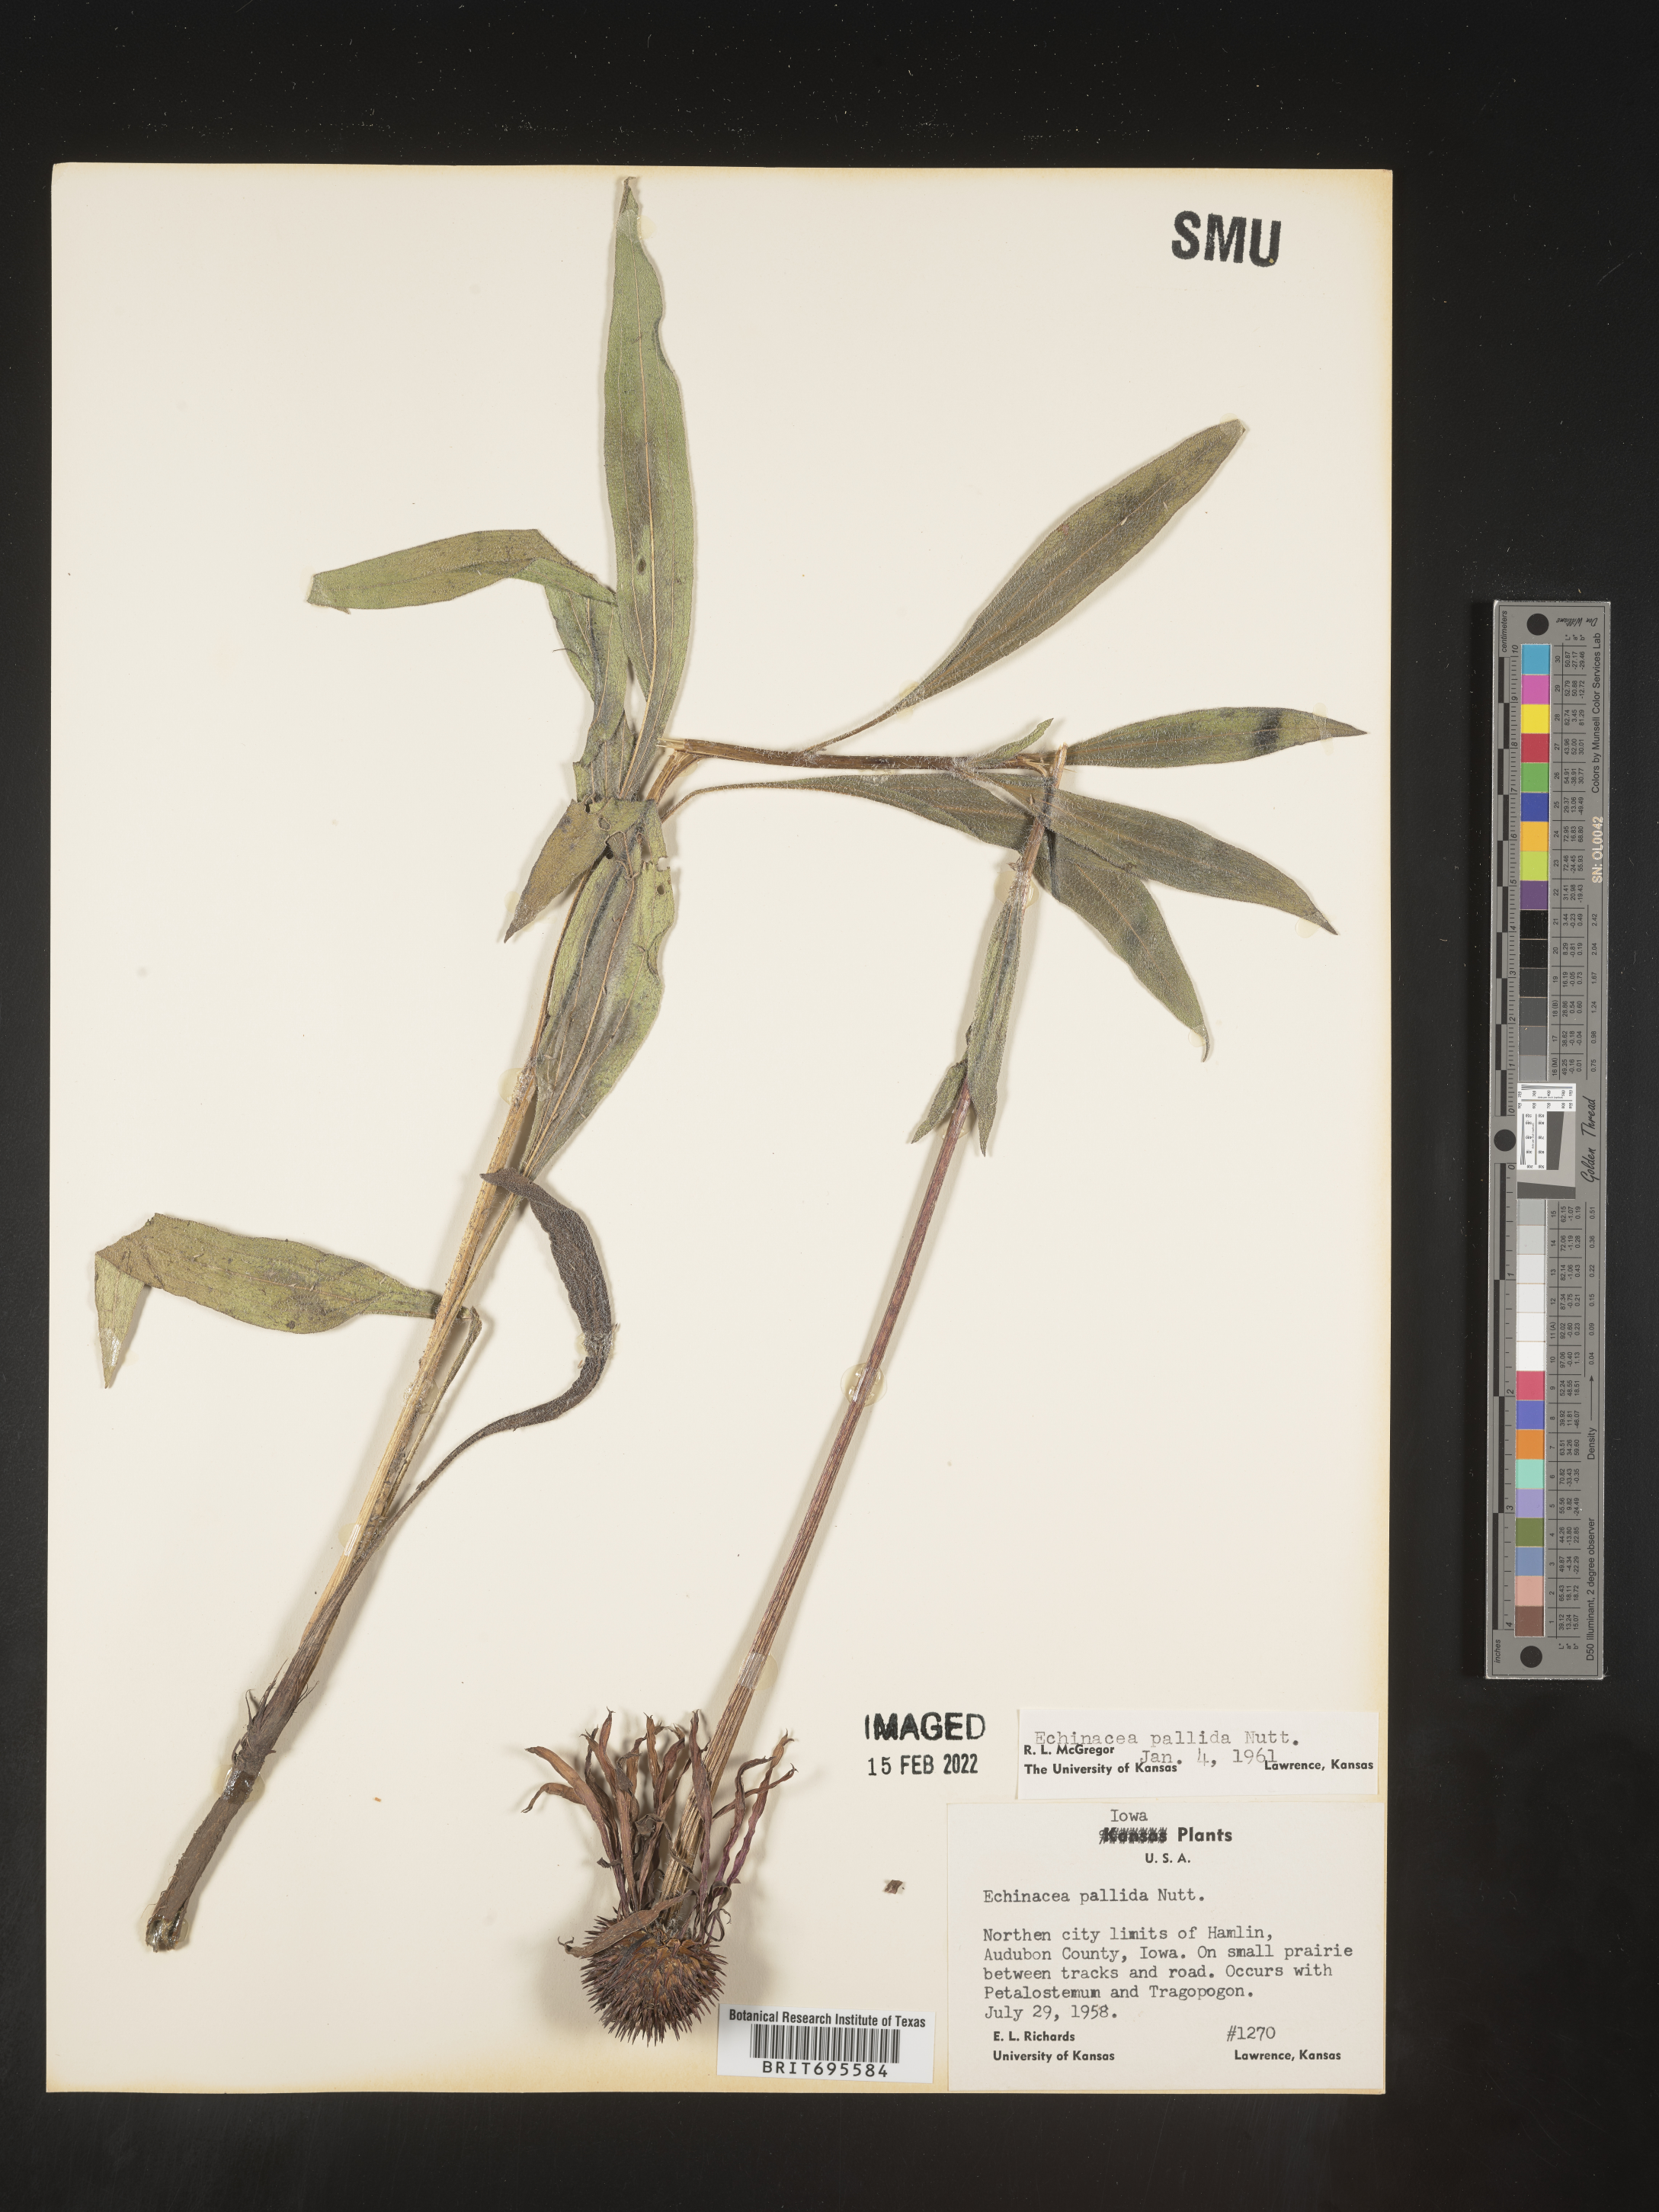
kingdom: Plantae
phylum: Tracheophyta
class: Magnoliopsida
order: Asterales
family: Asteraceae
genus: Echinacea
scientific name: Echinacea pallida
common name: Pale echinacea
